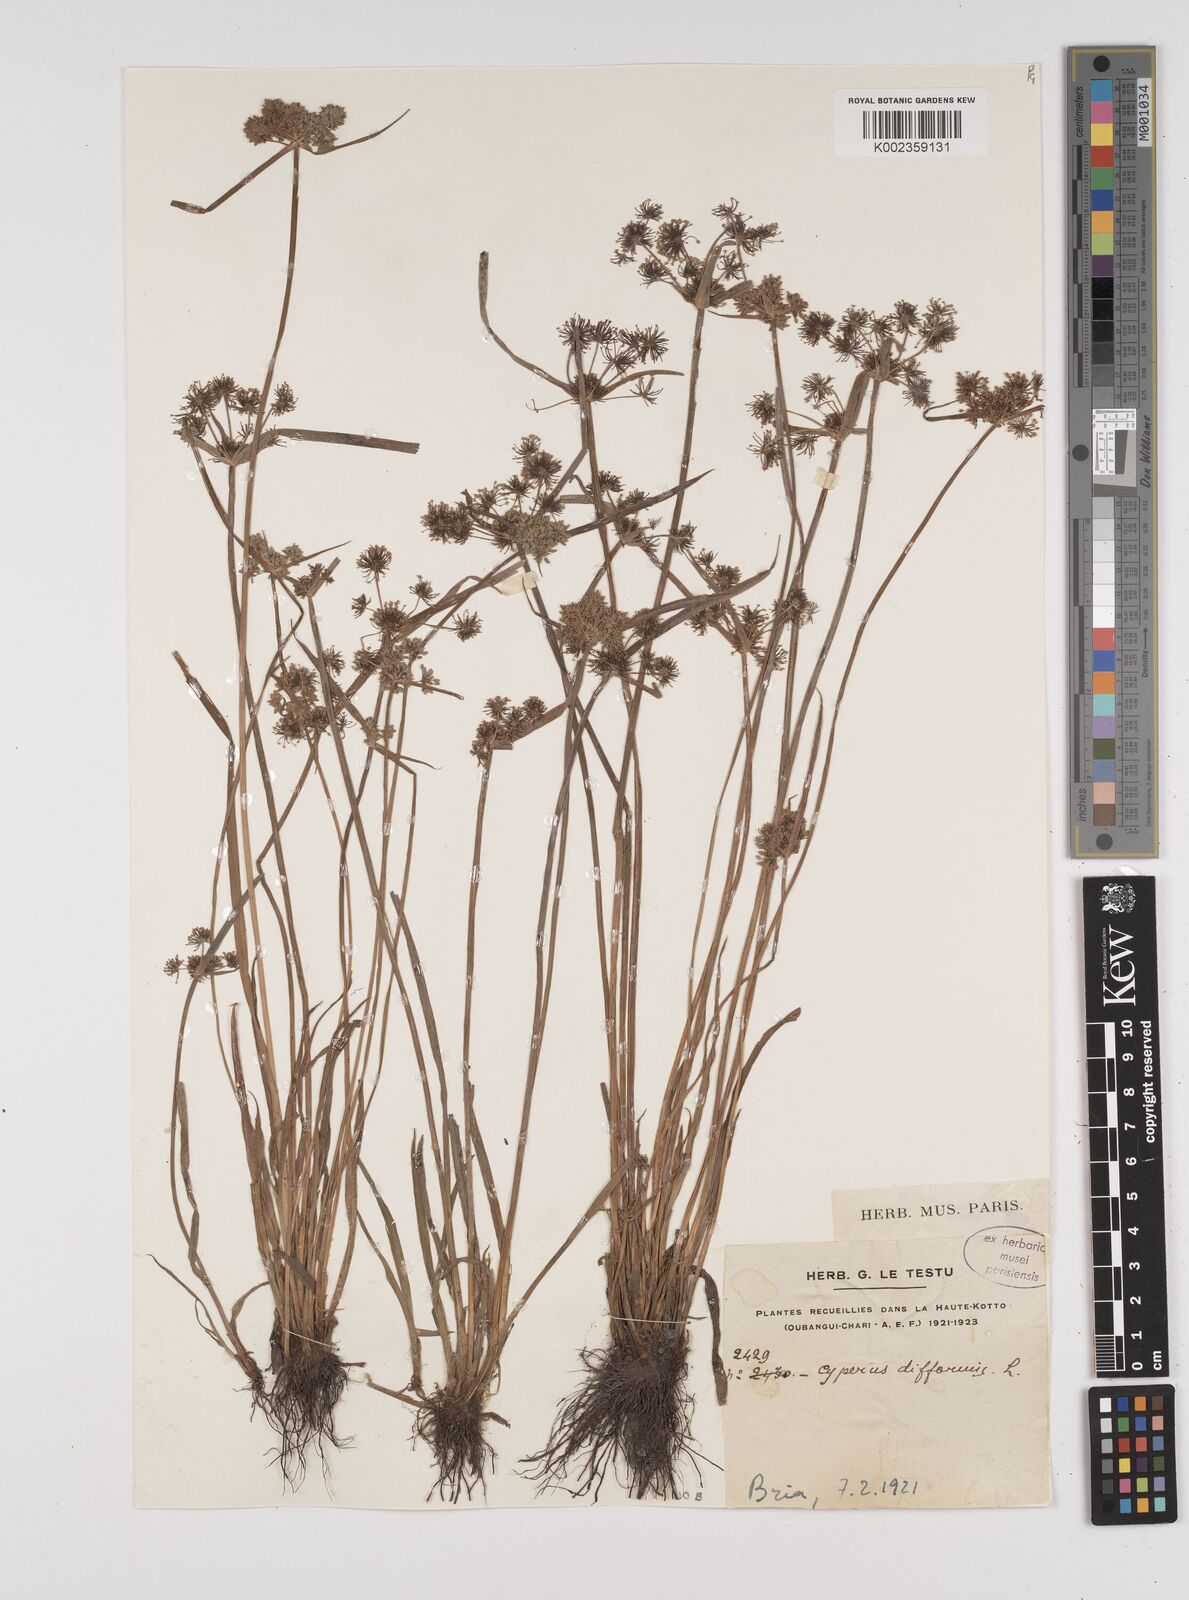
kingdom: Plantae
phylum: Tracheophyta
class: Liliopsida
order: Poales
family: Cyperaceae
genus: Cyperus
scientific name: Cyperus difformis
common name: Variable flatsedge
